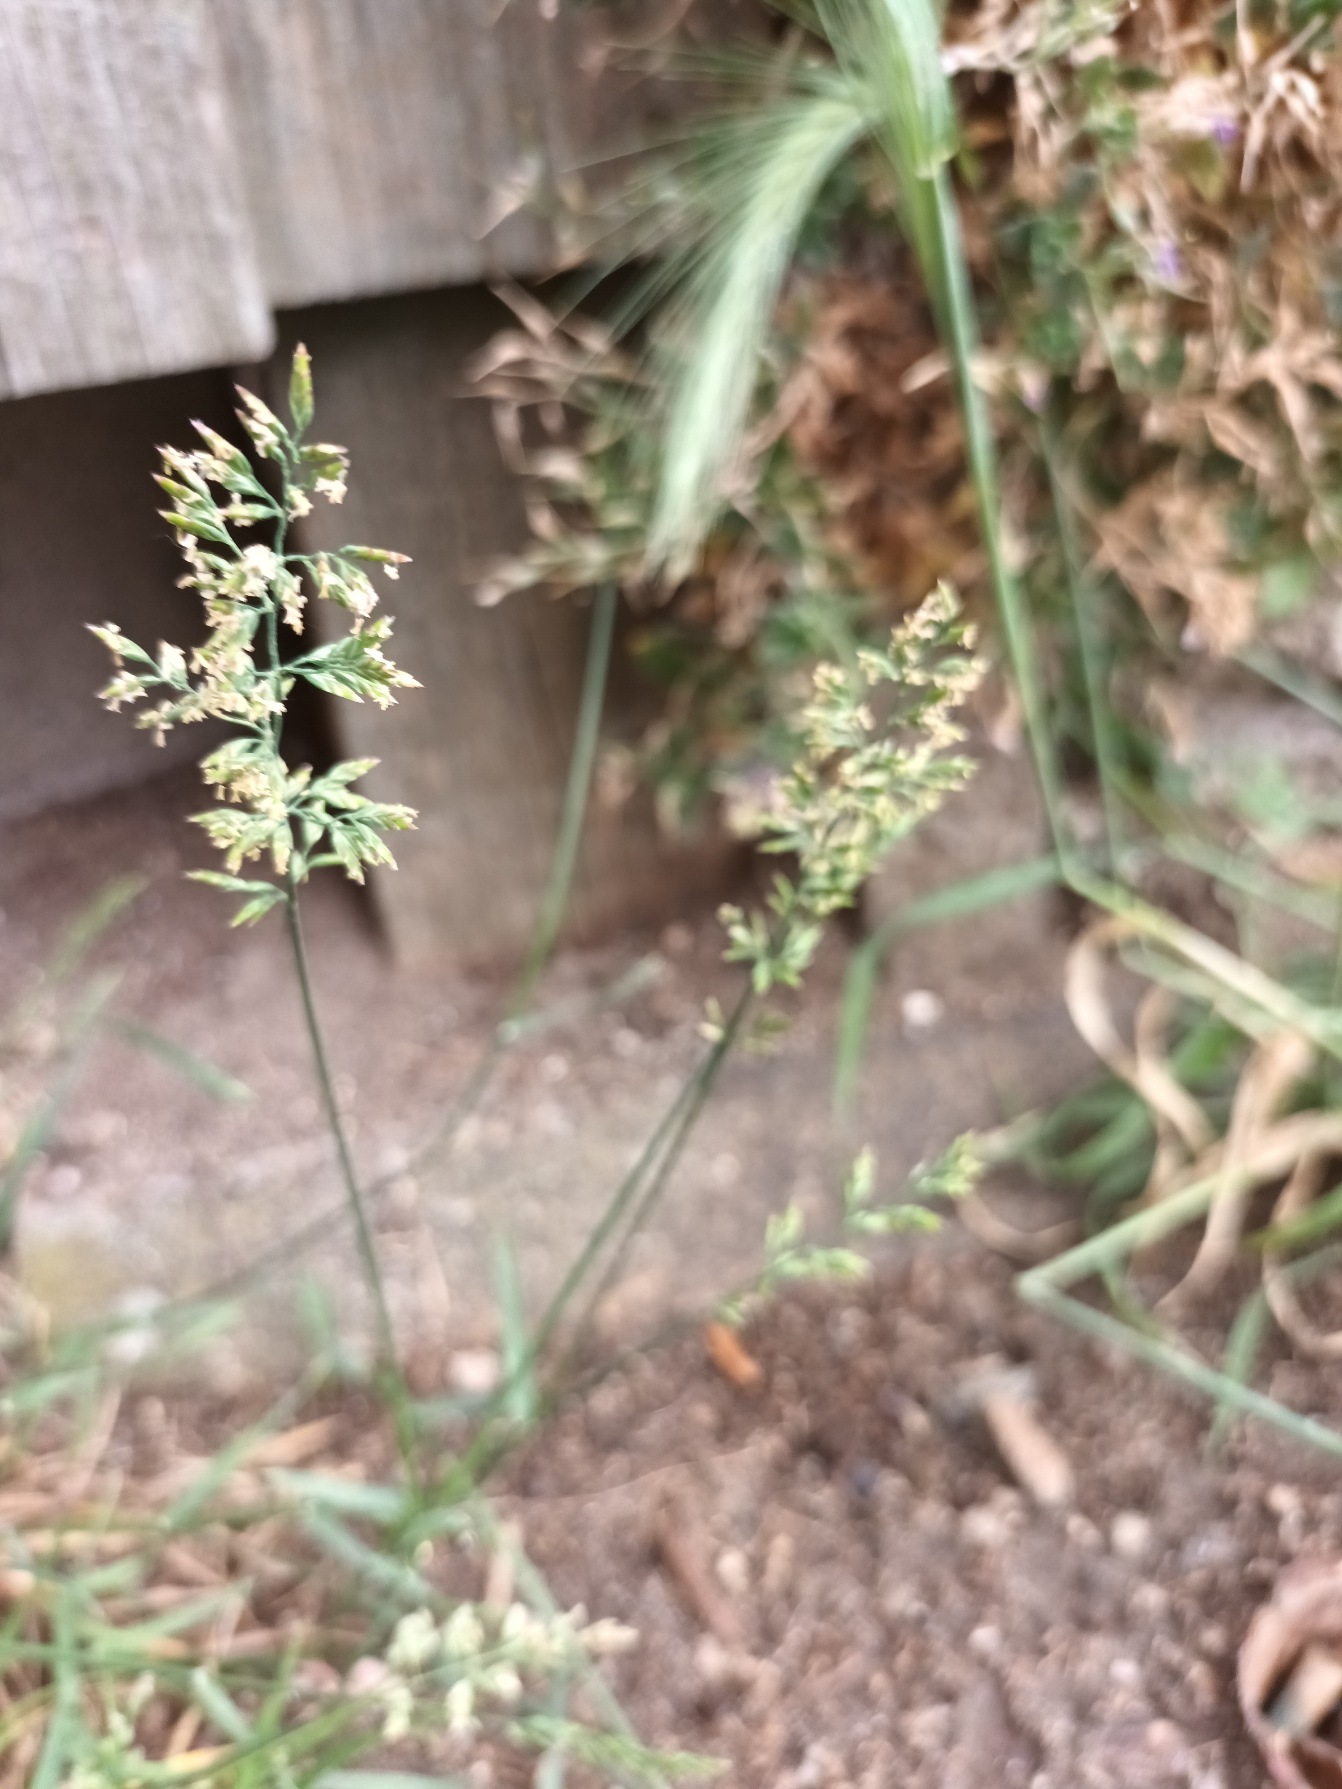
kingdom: Plantae
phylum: Tracheophyta
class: Liliopsida
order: Poales
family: Poaceae
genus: Poa
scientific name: Poa compressa
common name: Fladstrået rapgræs
